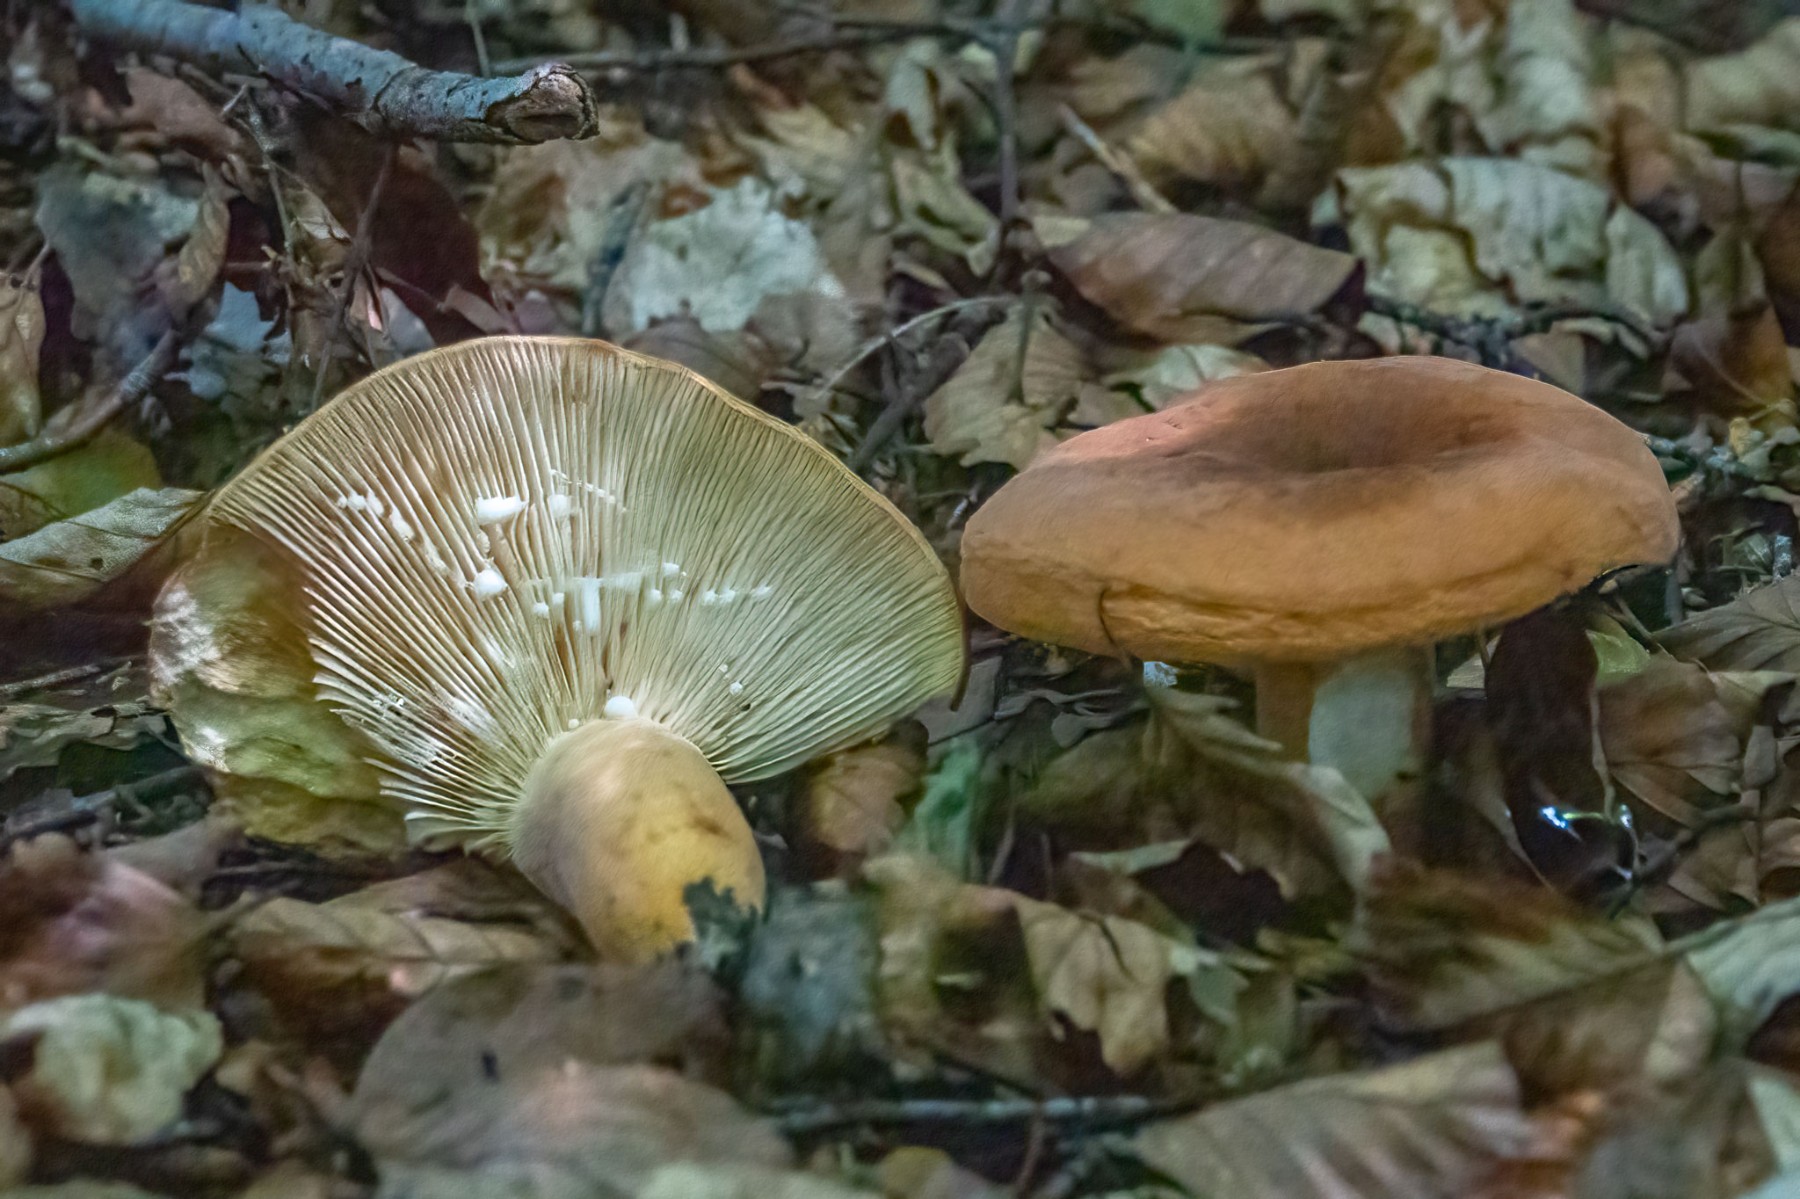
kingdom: Fungi
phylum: Basidiomycota
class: Agaricomycetes
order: Russulales
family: Russulaceae
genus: Lactifluus
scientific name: Lactifluus volemus
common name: spiselig mælkehat
